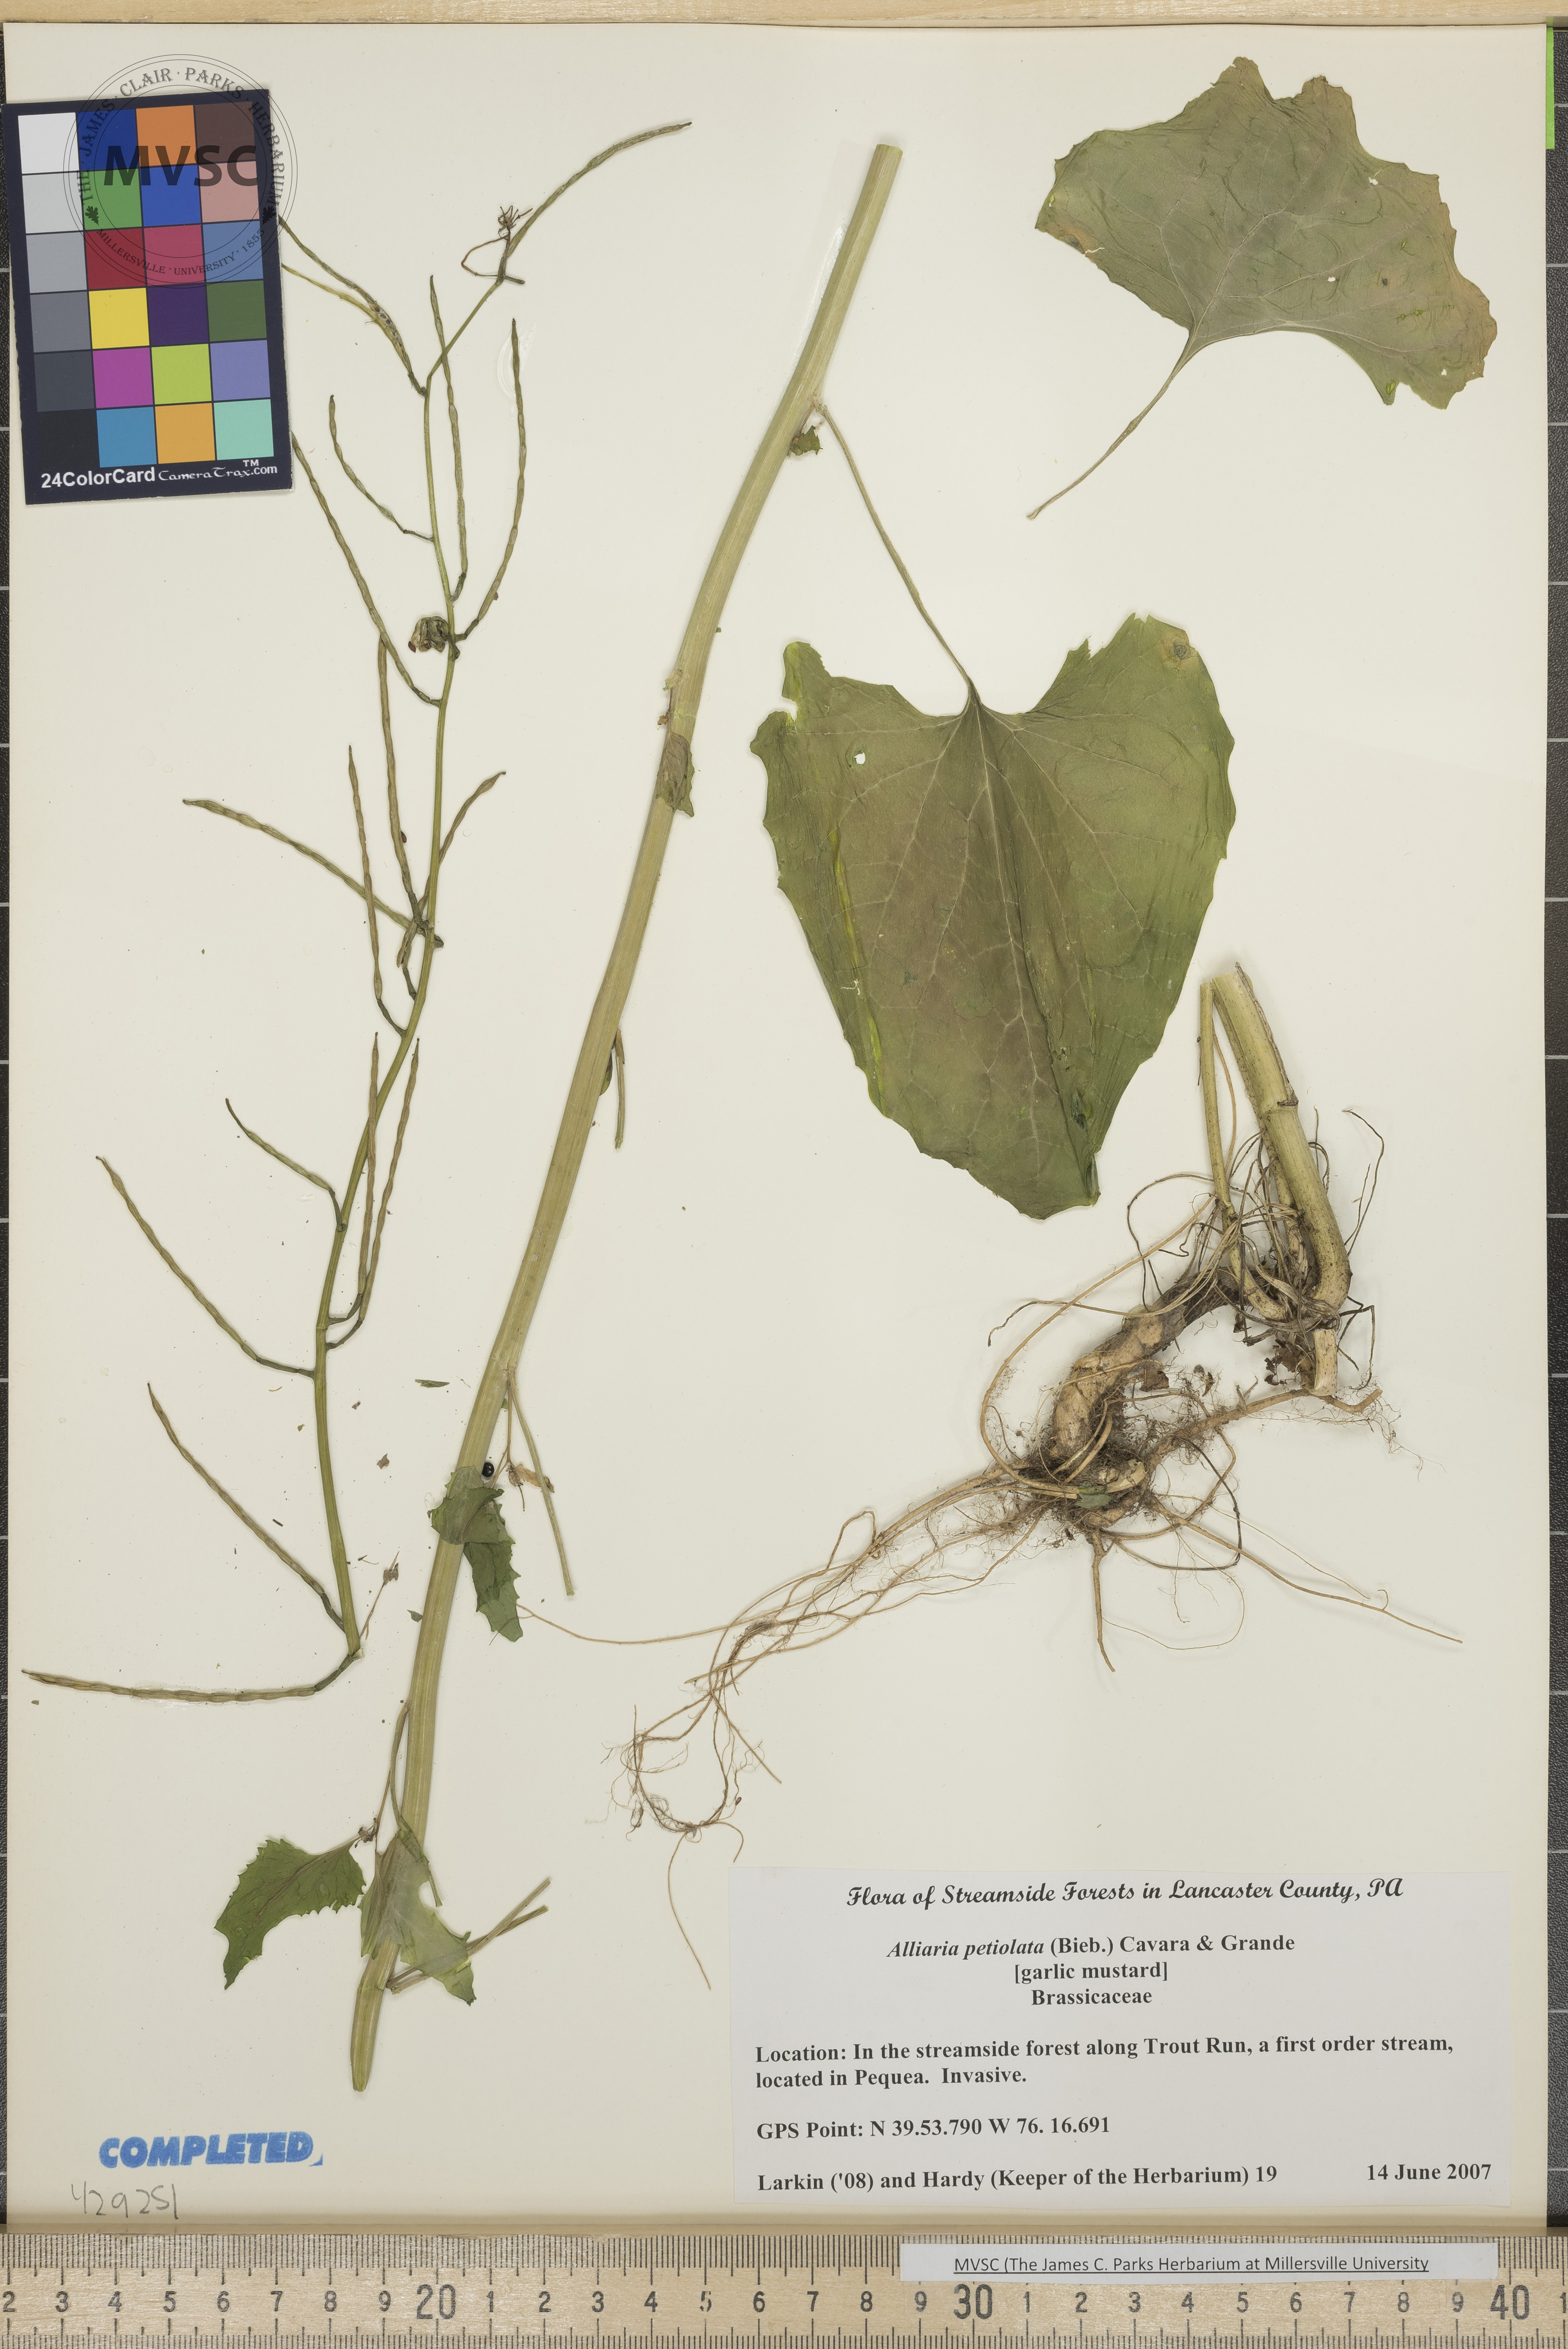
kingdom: Plantae
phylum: Tracheophyta
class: Magnoliopsida
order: Brassicales
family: Brassicaceae
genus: Alliaria
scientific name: Alliaria petiolata
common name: Garlic mustard
